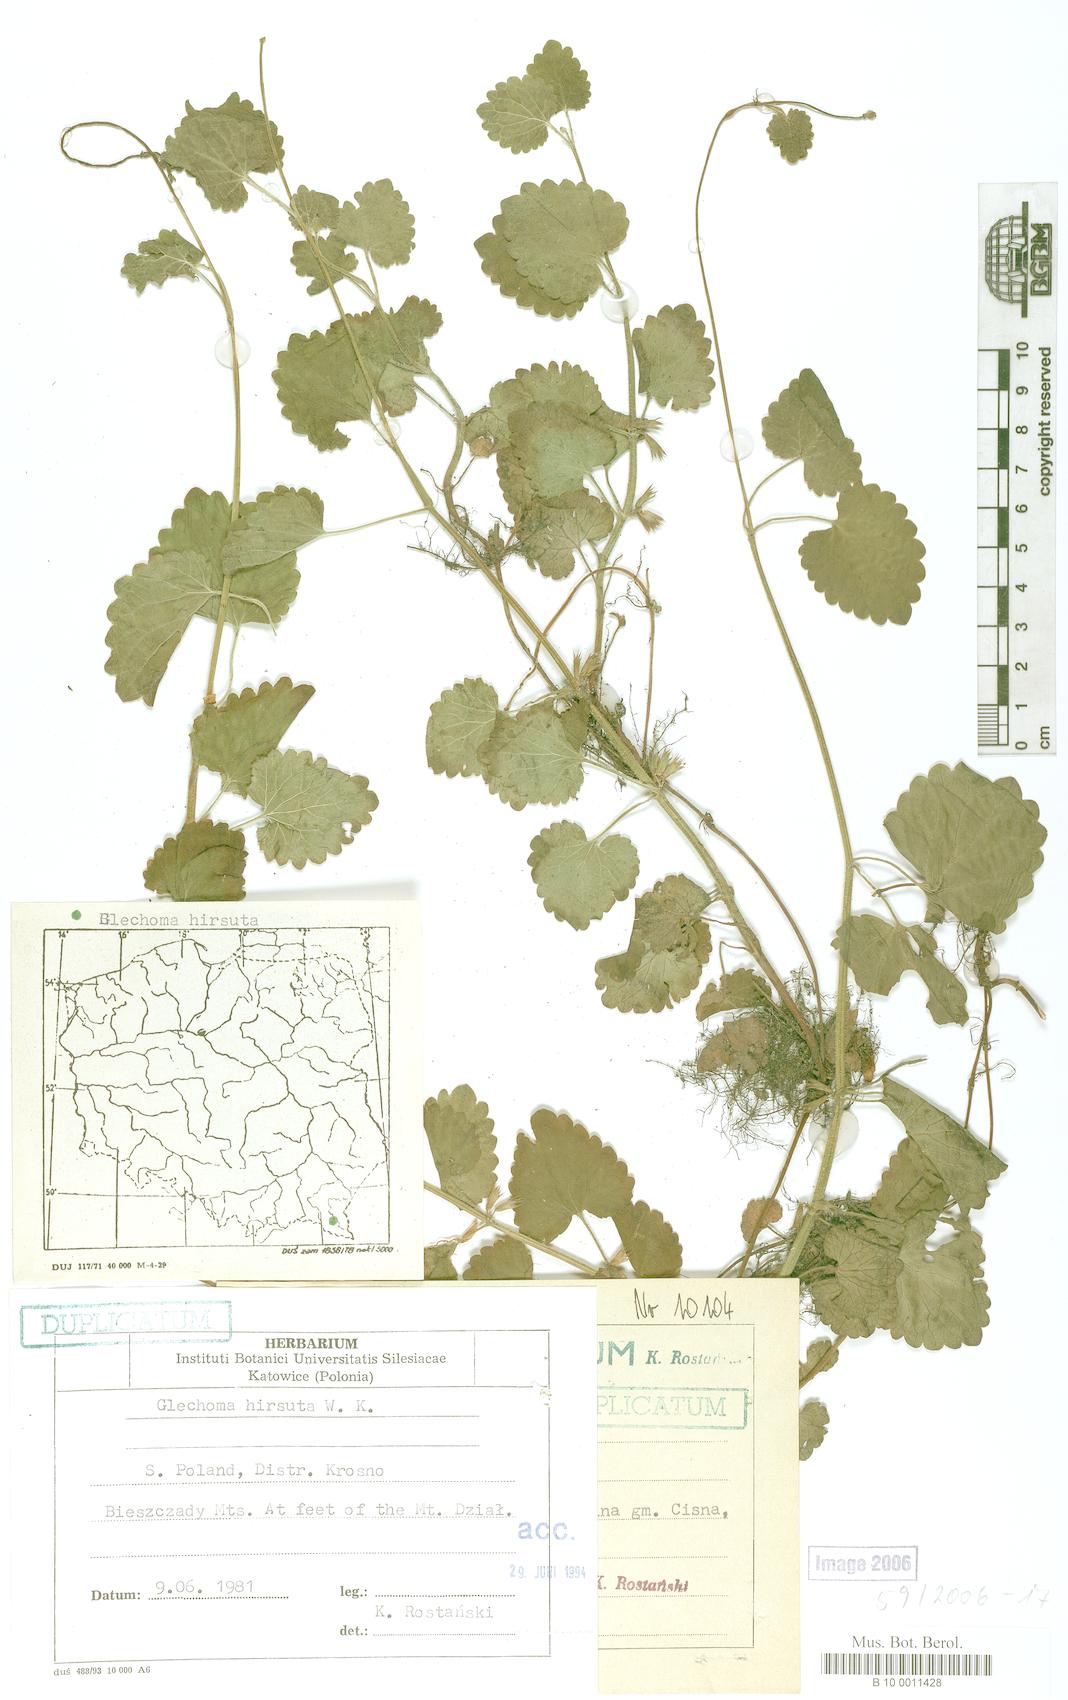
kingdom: Plantae
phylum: Tracheophyta
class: Magnoliopsida
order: Lamiales
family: Lamiaceae
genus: Glechoma
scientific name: Glechoma hirsuta
